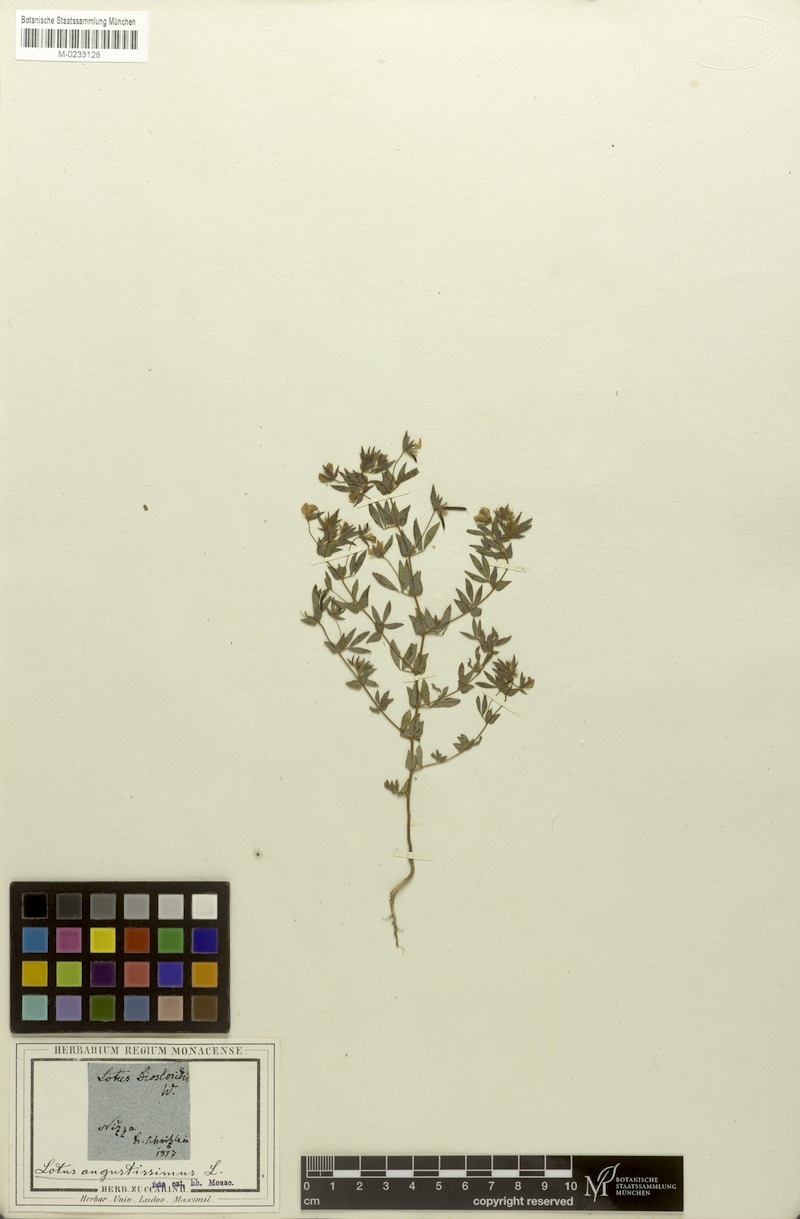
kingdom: Plantae
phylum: Tracheophyta
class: Magnoliopsida
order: Fabales
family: Fabaceae
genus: Lotus
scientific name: Lotus angustissimus
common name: Slender bird's-foot trefoil
